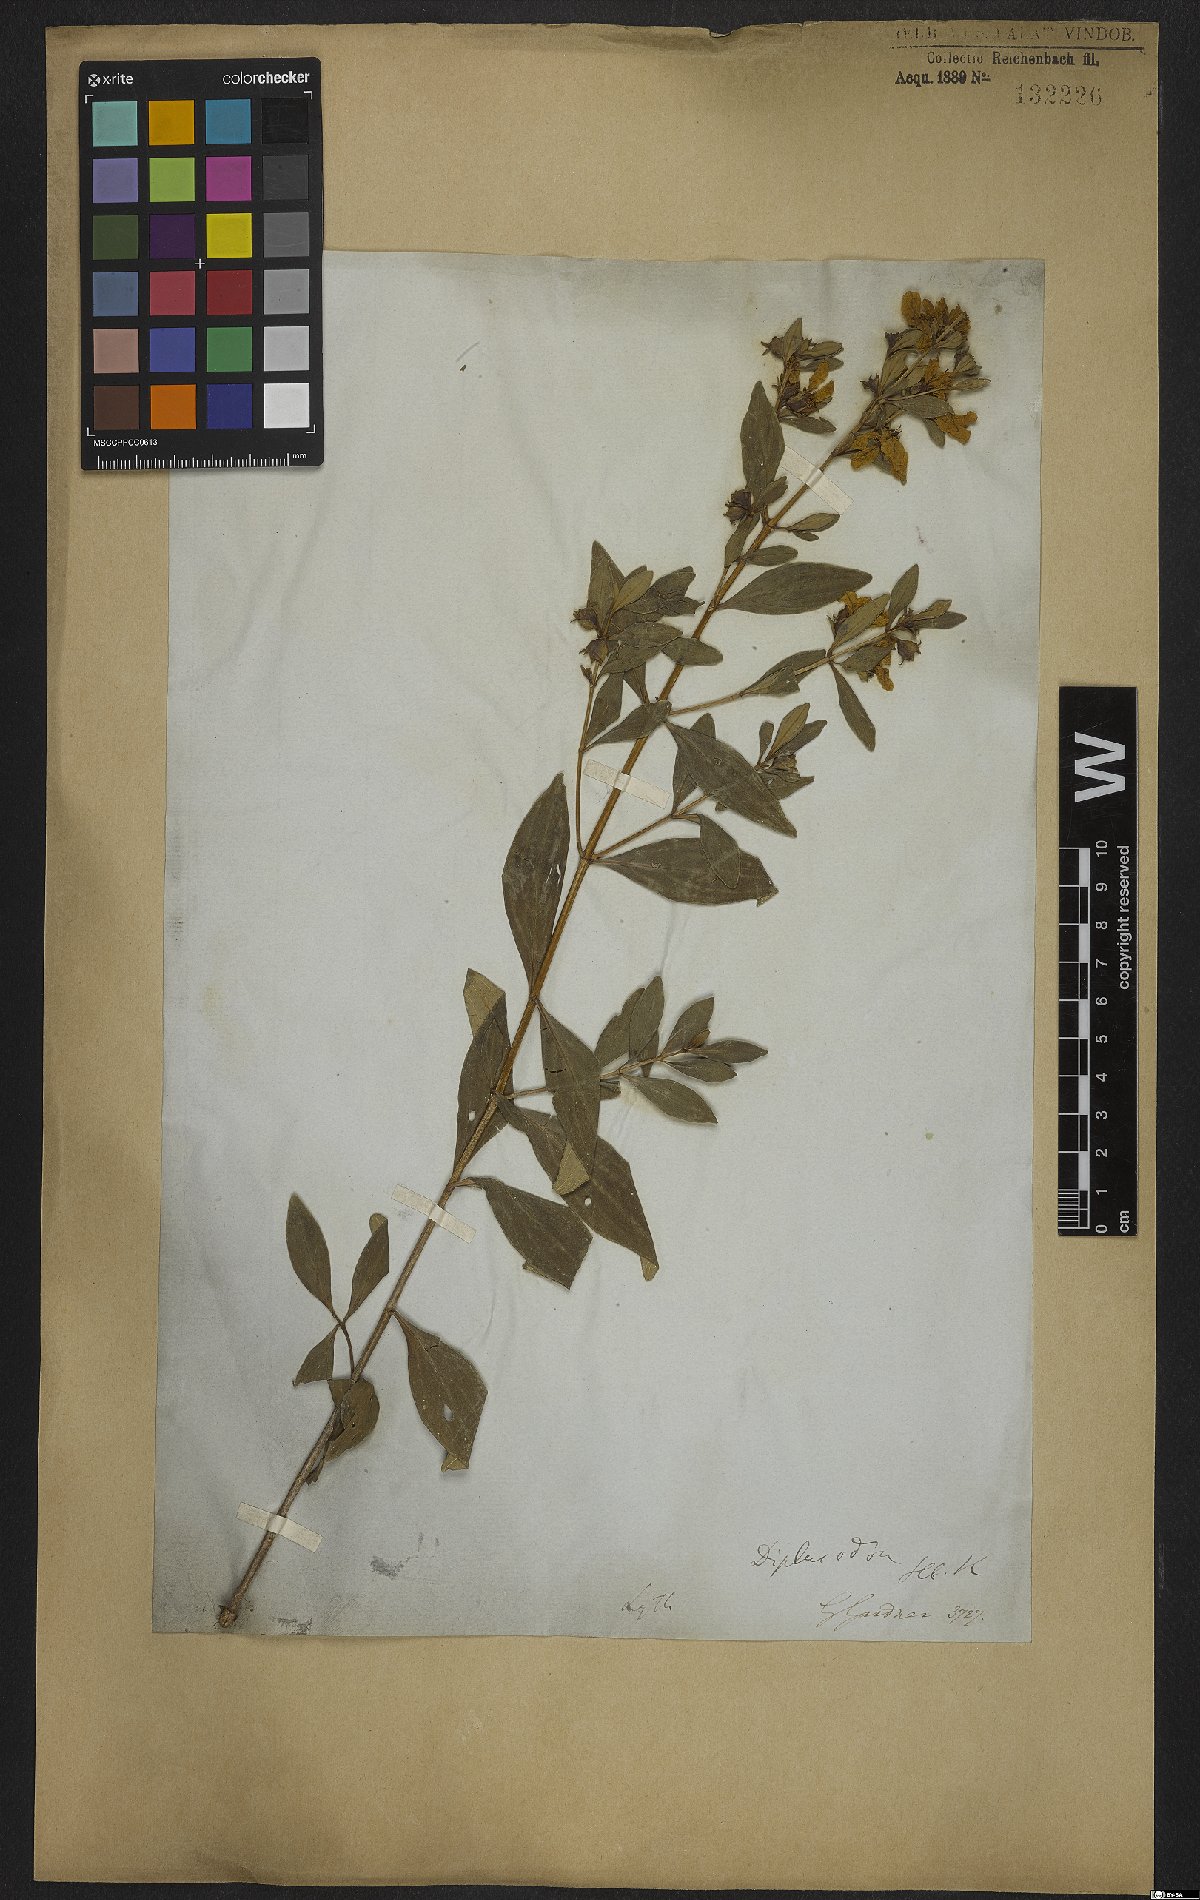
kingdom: Plantae
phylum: Tracheophyta
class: Magnoliopsida
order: Myrtales
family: Lythraceae
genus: Diplusodon
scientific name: Diplusodon virgatus
